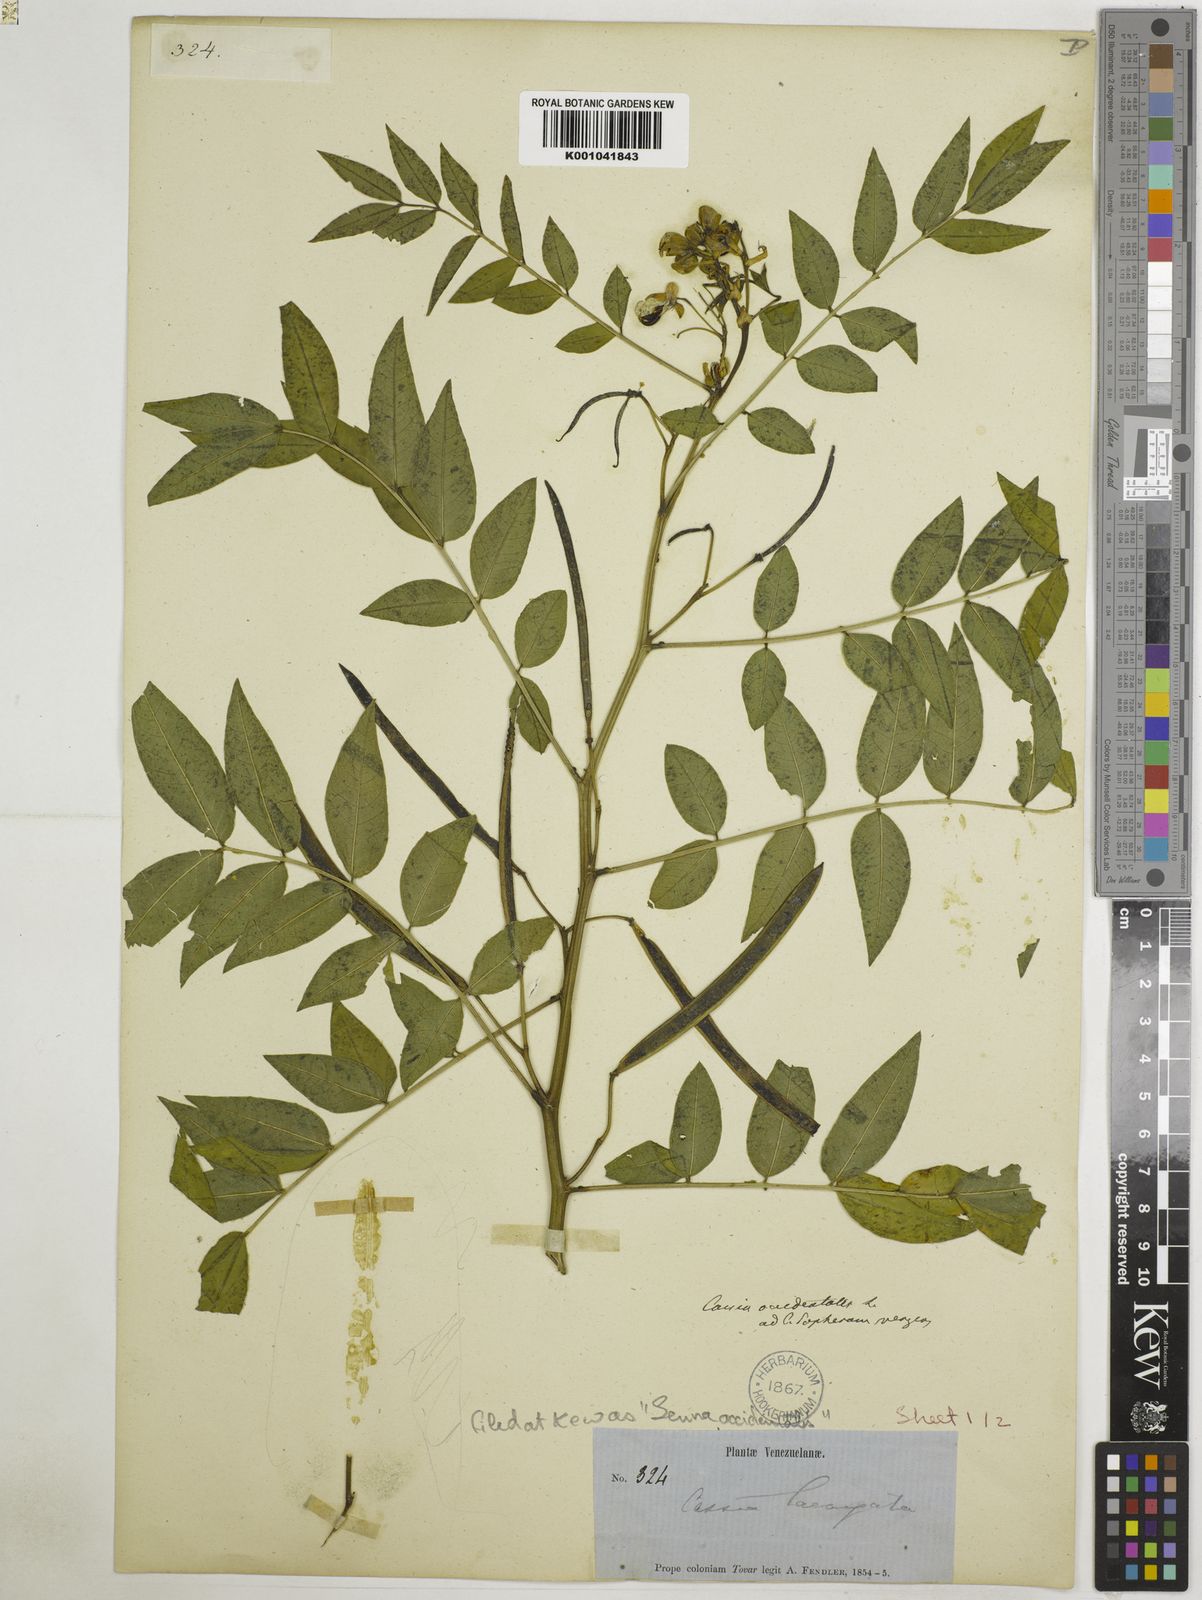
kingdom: Plantae
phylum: Tracheophyta
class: Magnoliopsida
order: Fabales
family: Fabaceae
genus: Senna
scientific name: Senna occidentalis
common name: Septicweed
